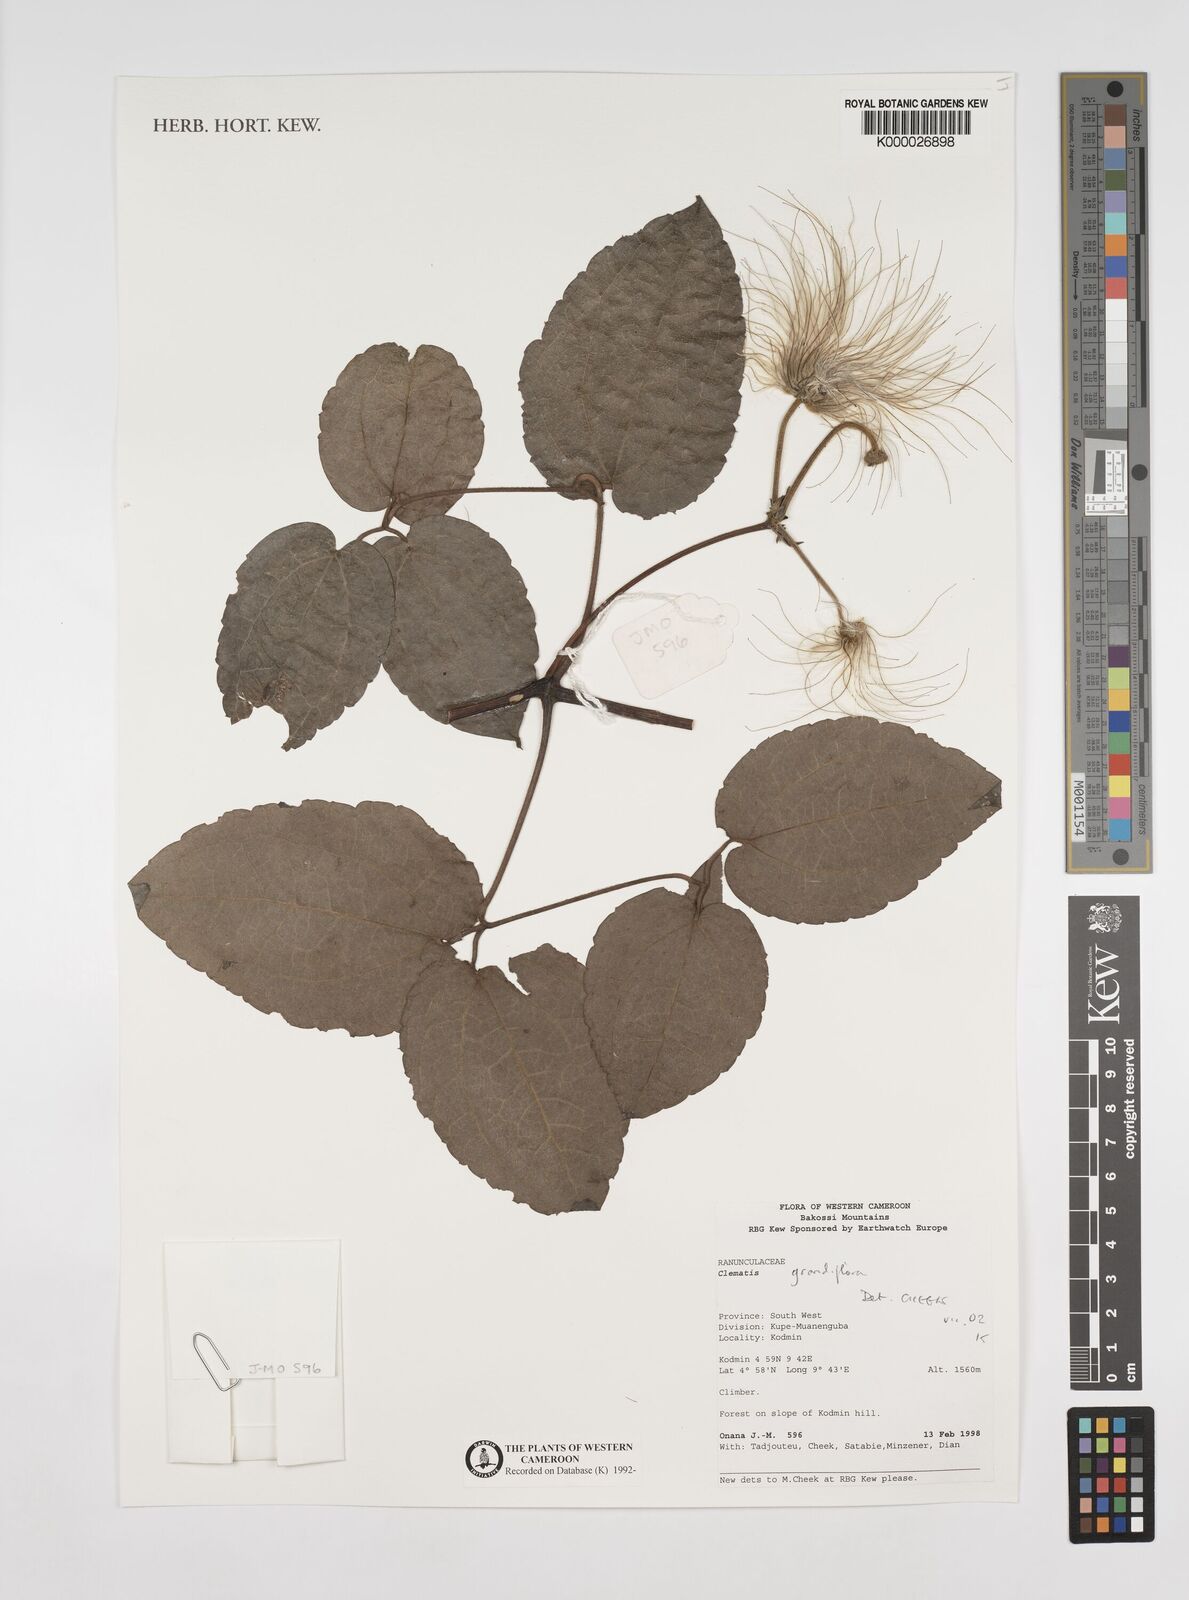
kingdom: Plantae
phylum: Tracheophyta
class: Magnoliopsida
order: Ranunculales
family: Ranunculaceae
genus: Clematis
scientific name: Clematis grandiflora
